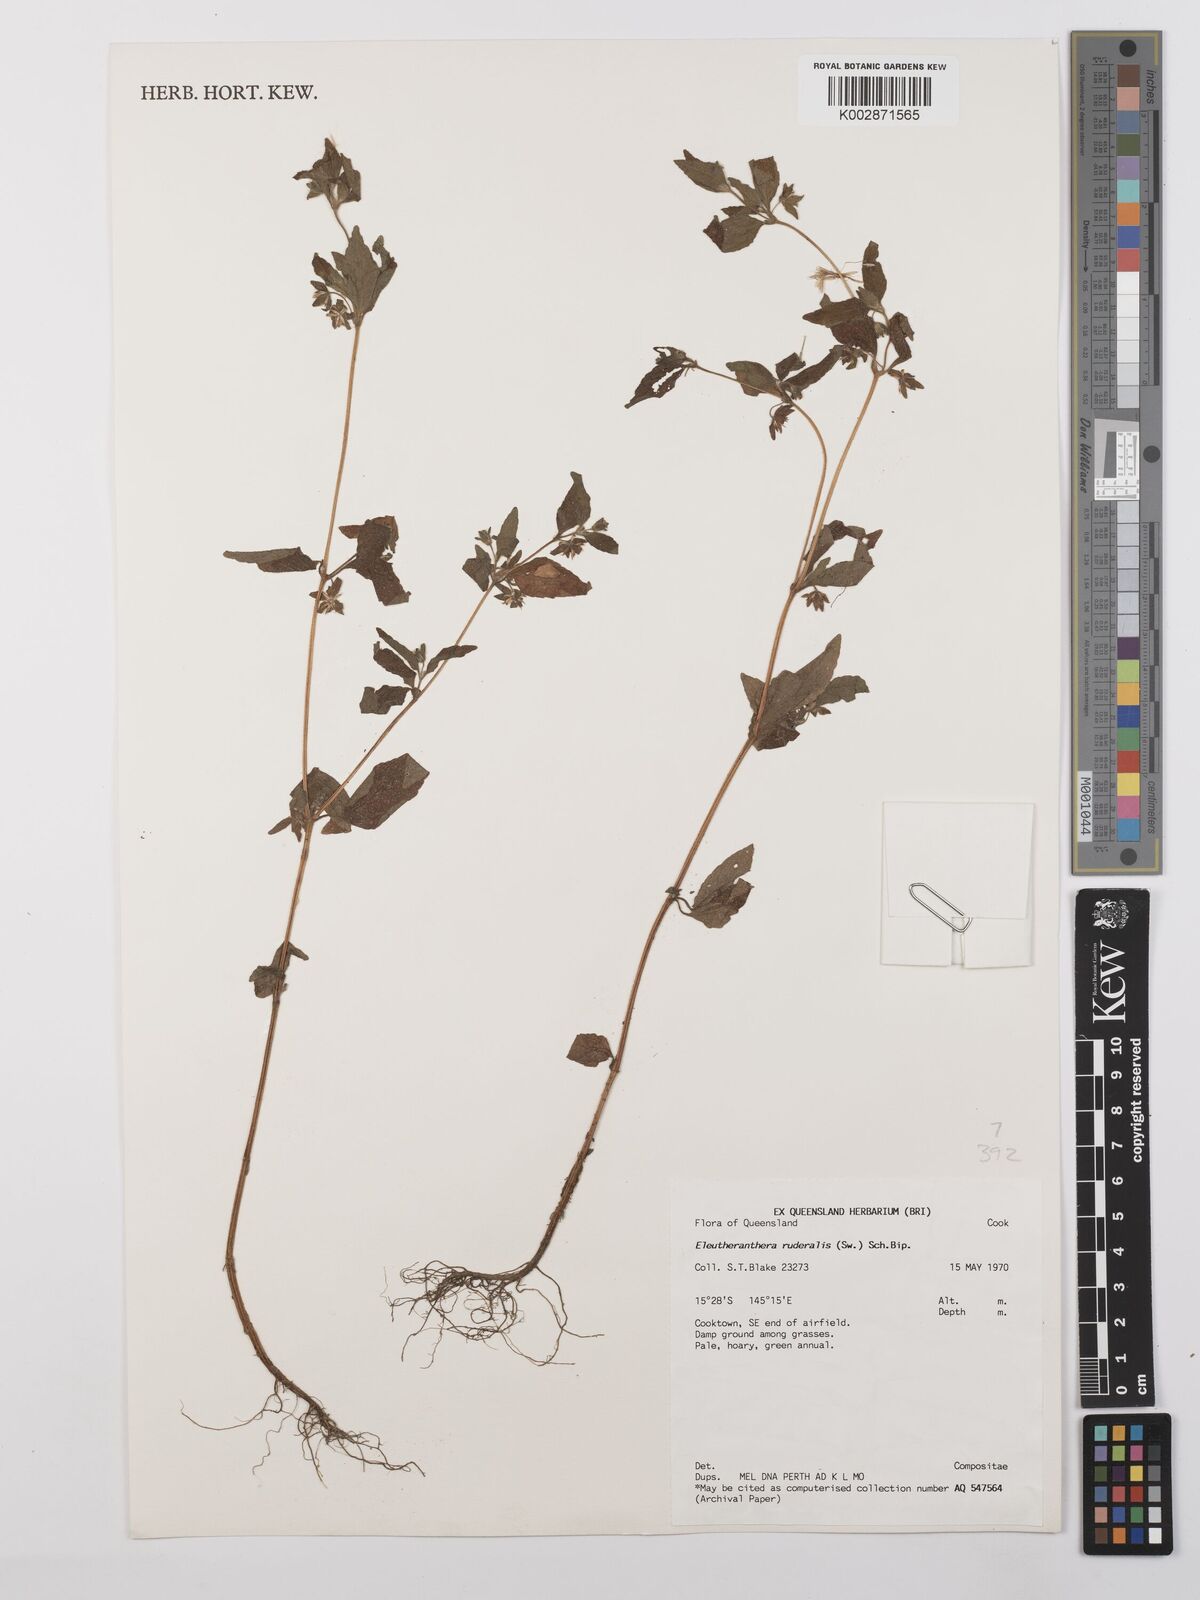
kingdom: Plantae
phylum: Tracheophyta
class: Magnoliopsida
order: Asterales
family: Asteraceae
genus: Eleutheranthera
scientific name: Eleutheranthera ruderalis
